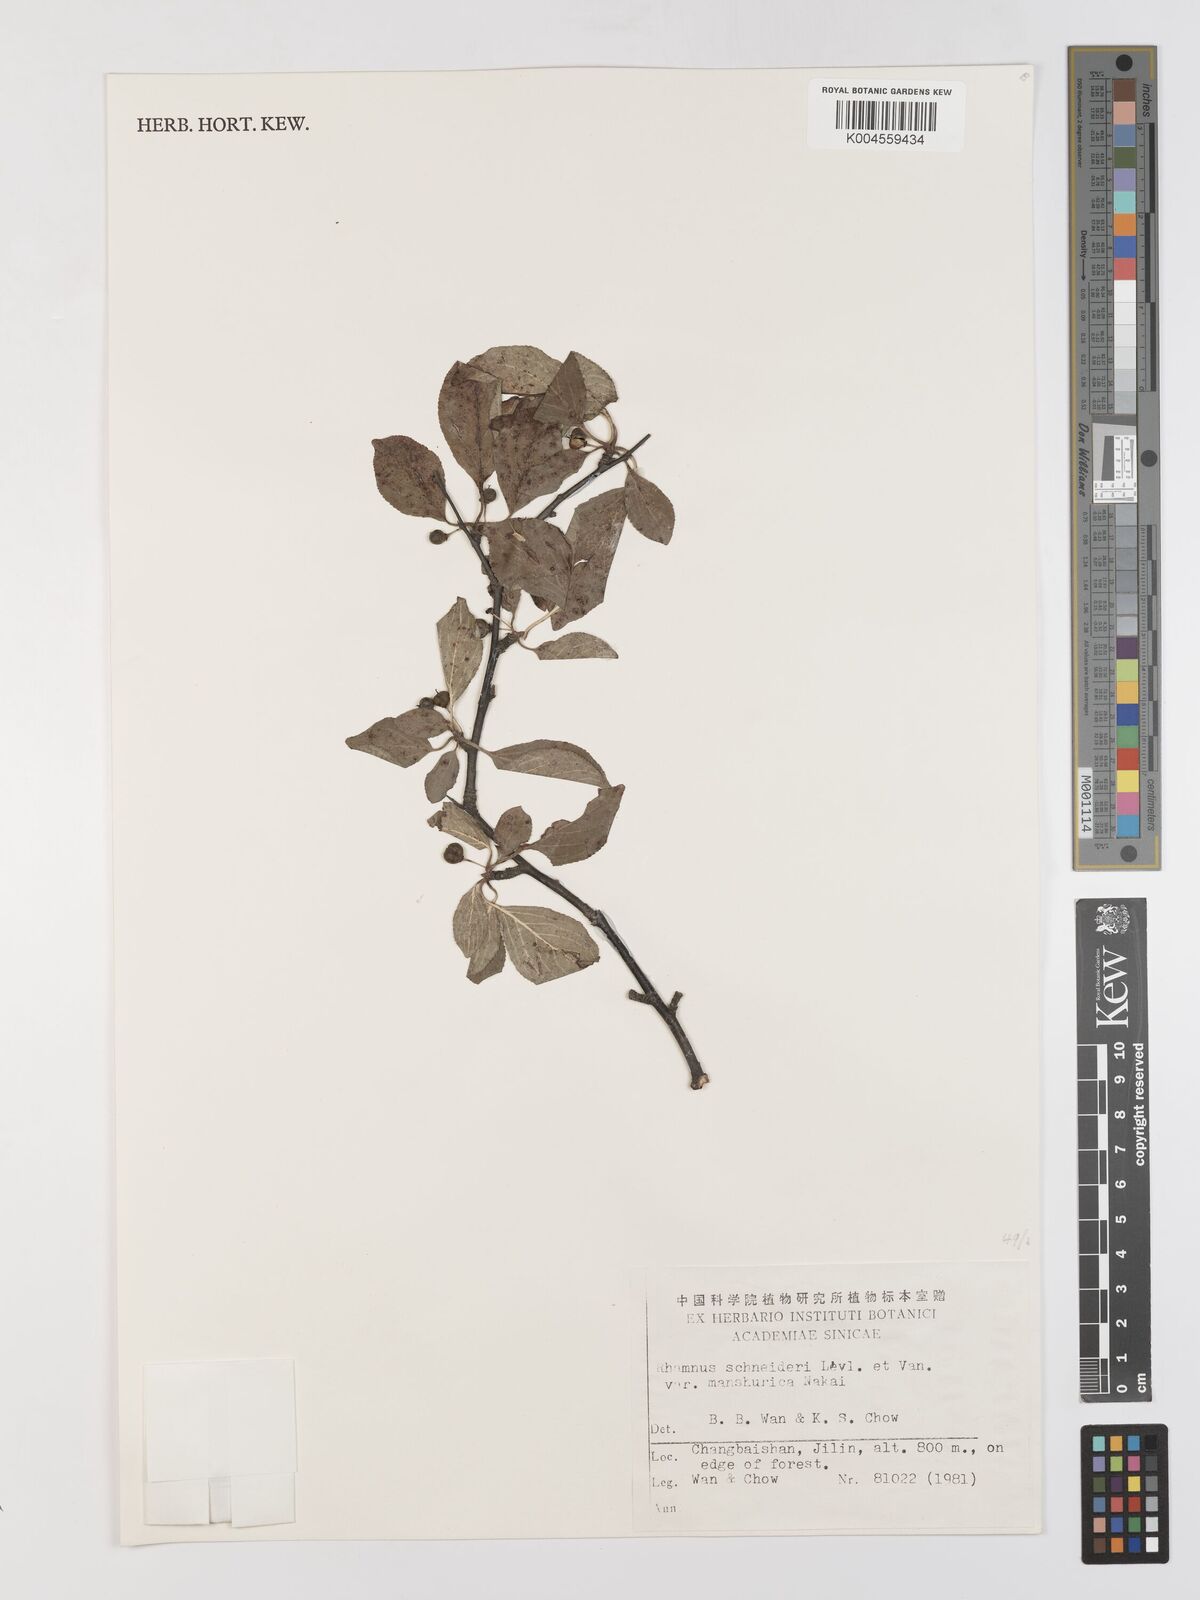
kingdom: Plantae
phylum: Tracheophyta
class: Magnoliopsida
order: Rosales
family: Rhamnaceae
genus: Rhamnus
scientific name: Rhamnus schneideri
